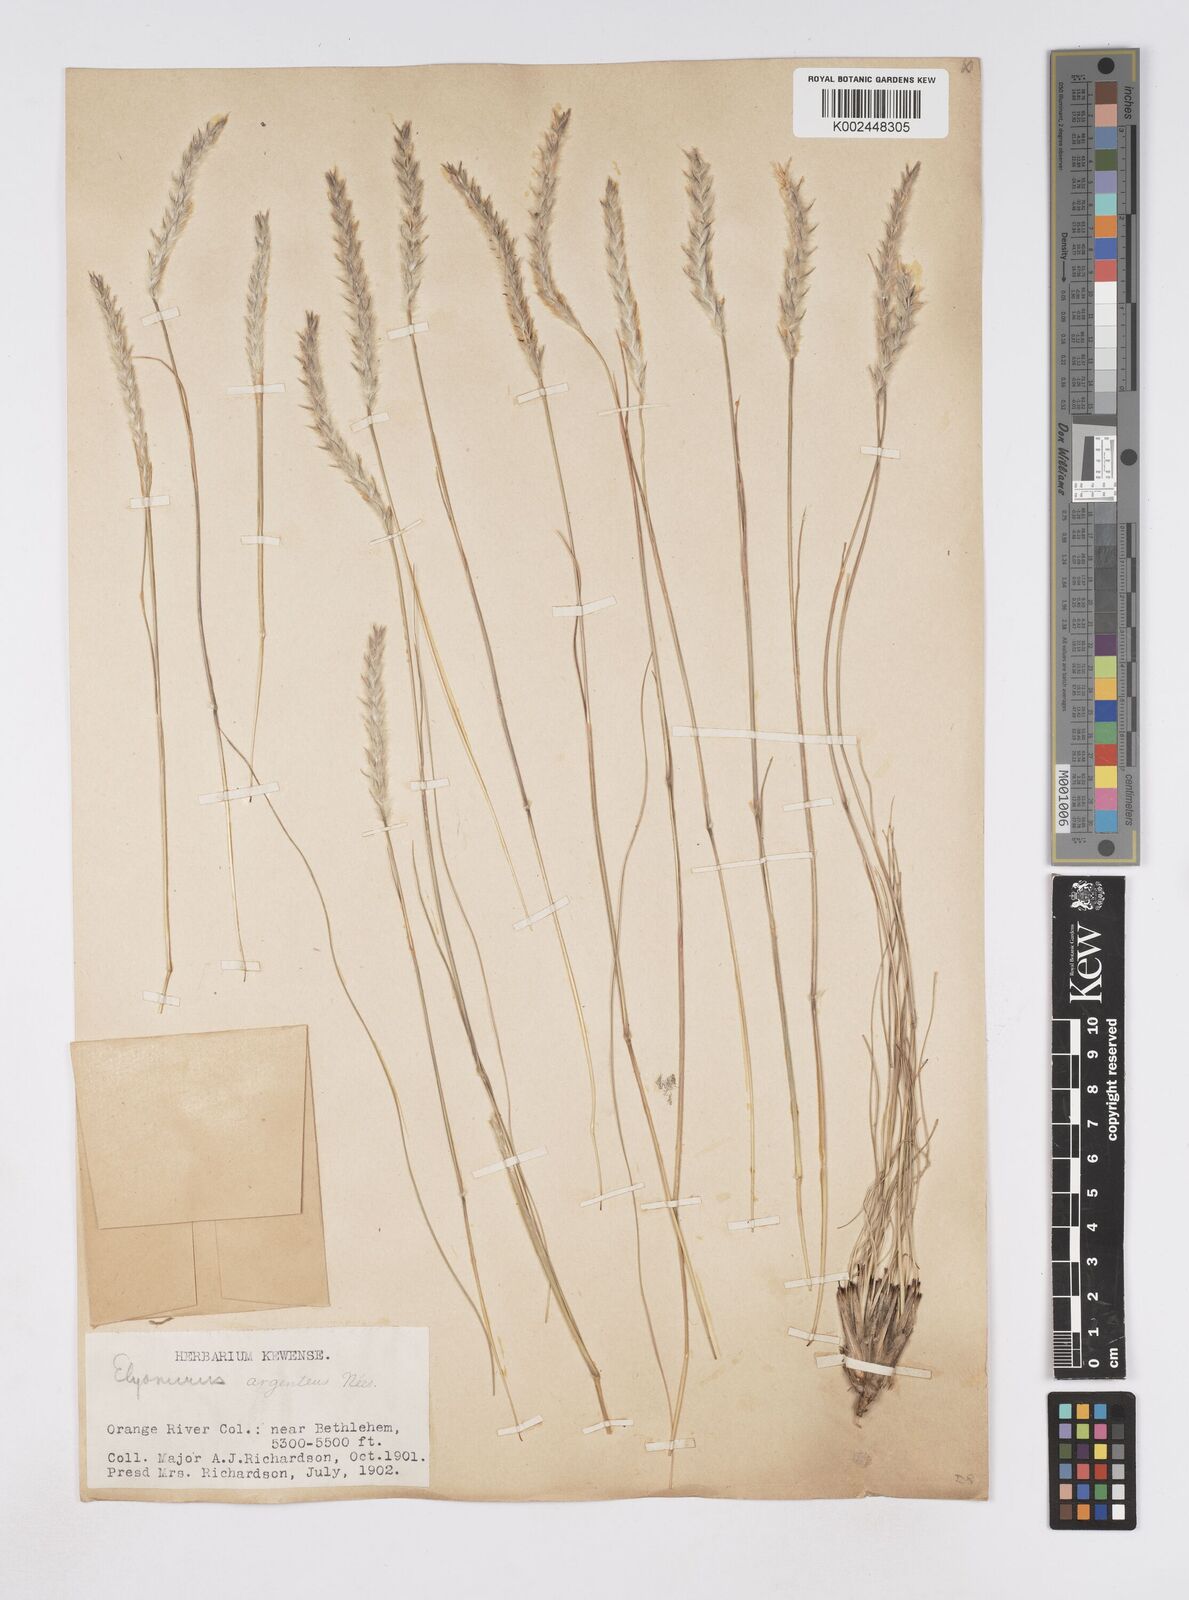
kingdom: Plantae
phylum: Tracheophyta
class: Liliopsida
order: Poales
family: Poaceae
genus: Elionurus
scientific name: Elionurus muticus
